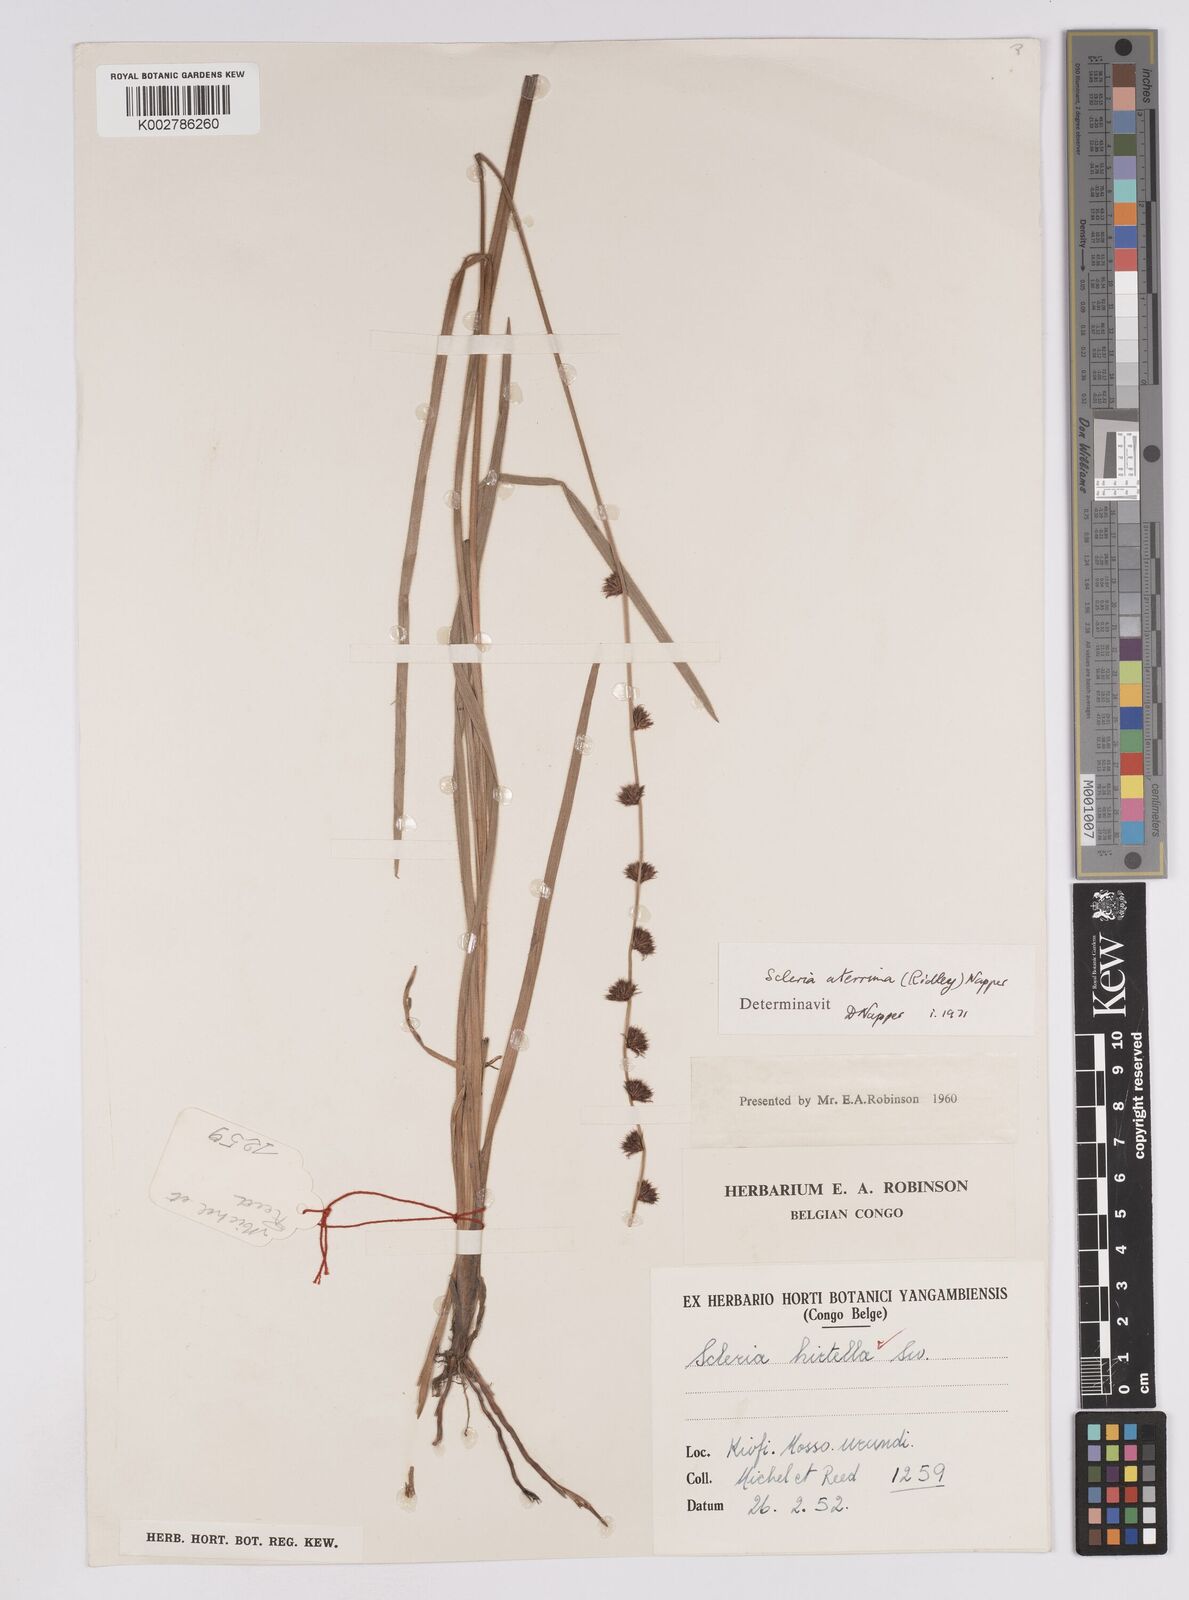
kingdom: Plantae
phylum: Tracheophyta
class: Liliopsida
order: Poales
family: Cyperaceae
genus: Scleria
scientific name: Scleria catophylla
